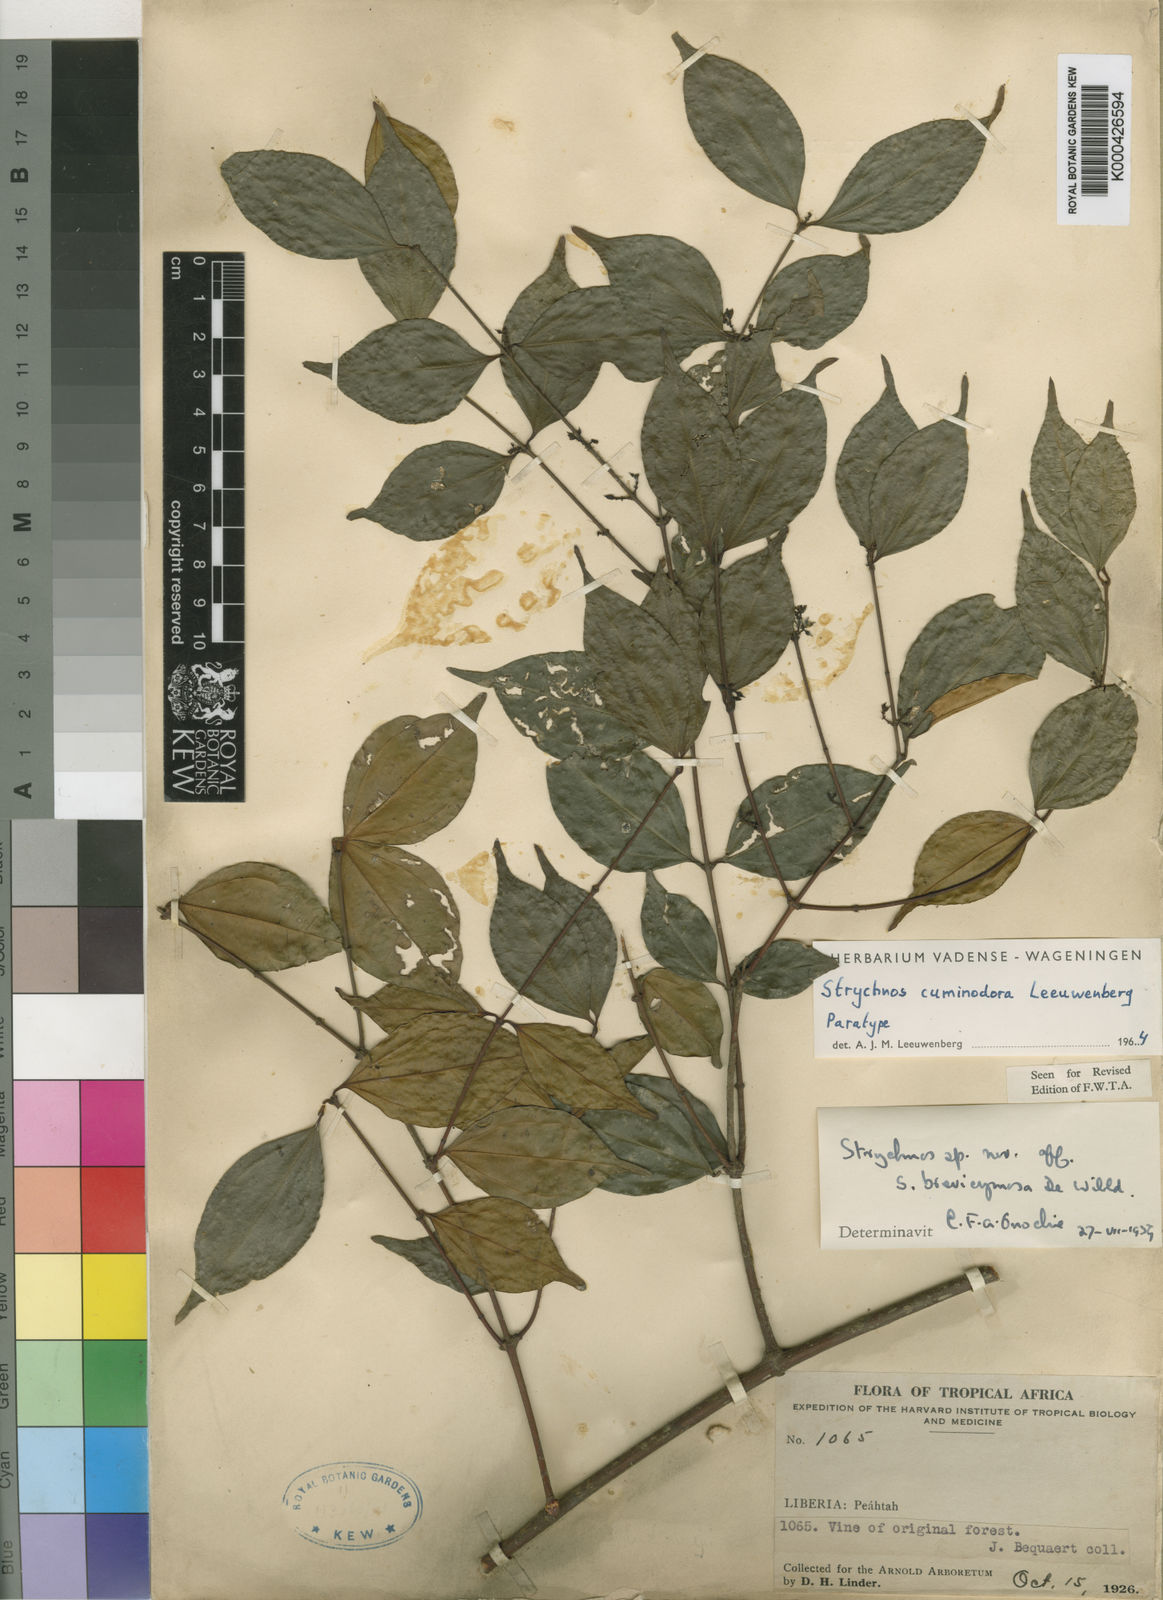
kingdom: Plantae
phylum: Tracheophyta
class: Magnoliopsida
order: Gentianales
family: Loganiaceae
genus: Strychnos
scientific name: Strychnos cuminodora
